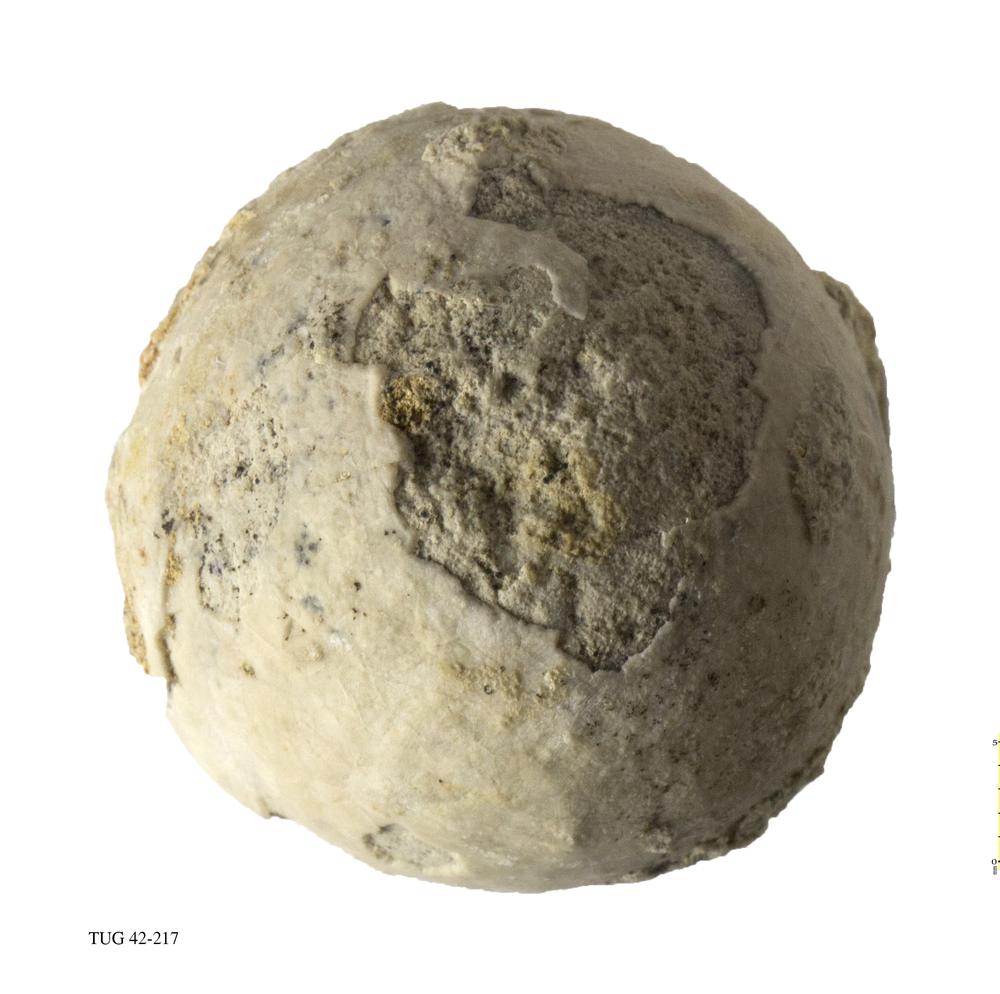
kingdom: Animalia
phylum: Echinodermata
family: Echinosphaeritidae
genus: Echinosphaerites
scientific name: Echinosphaerites Echinus aurantium
